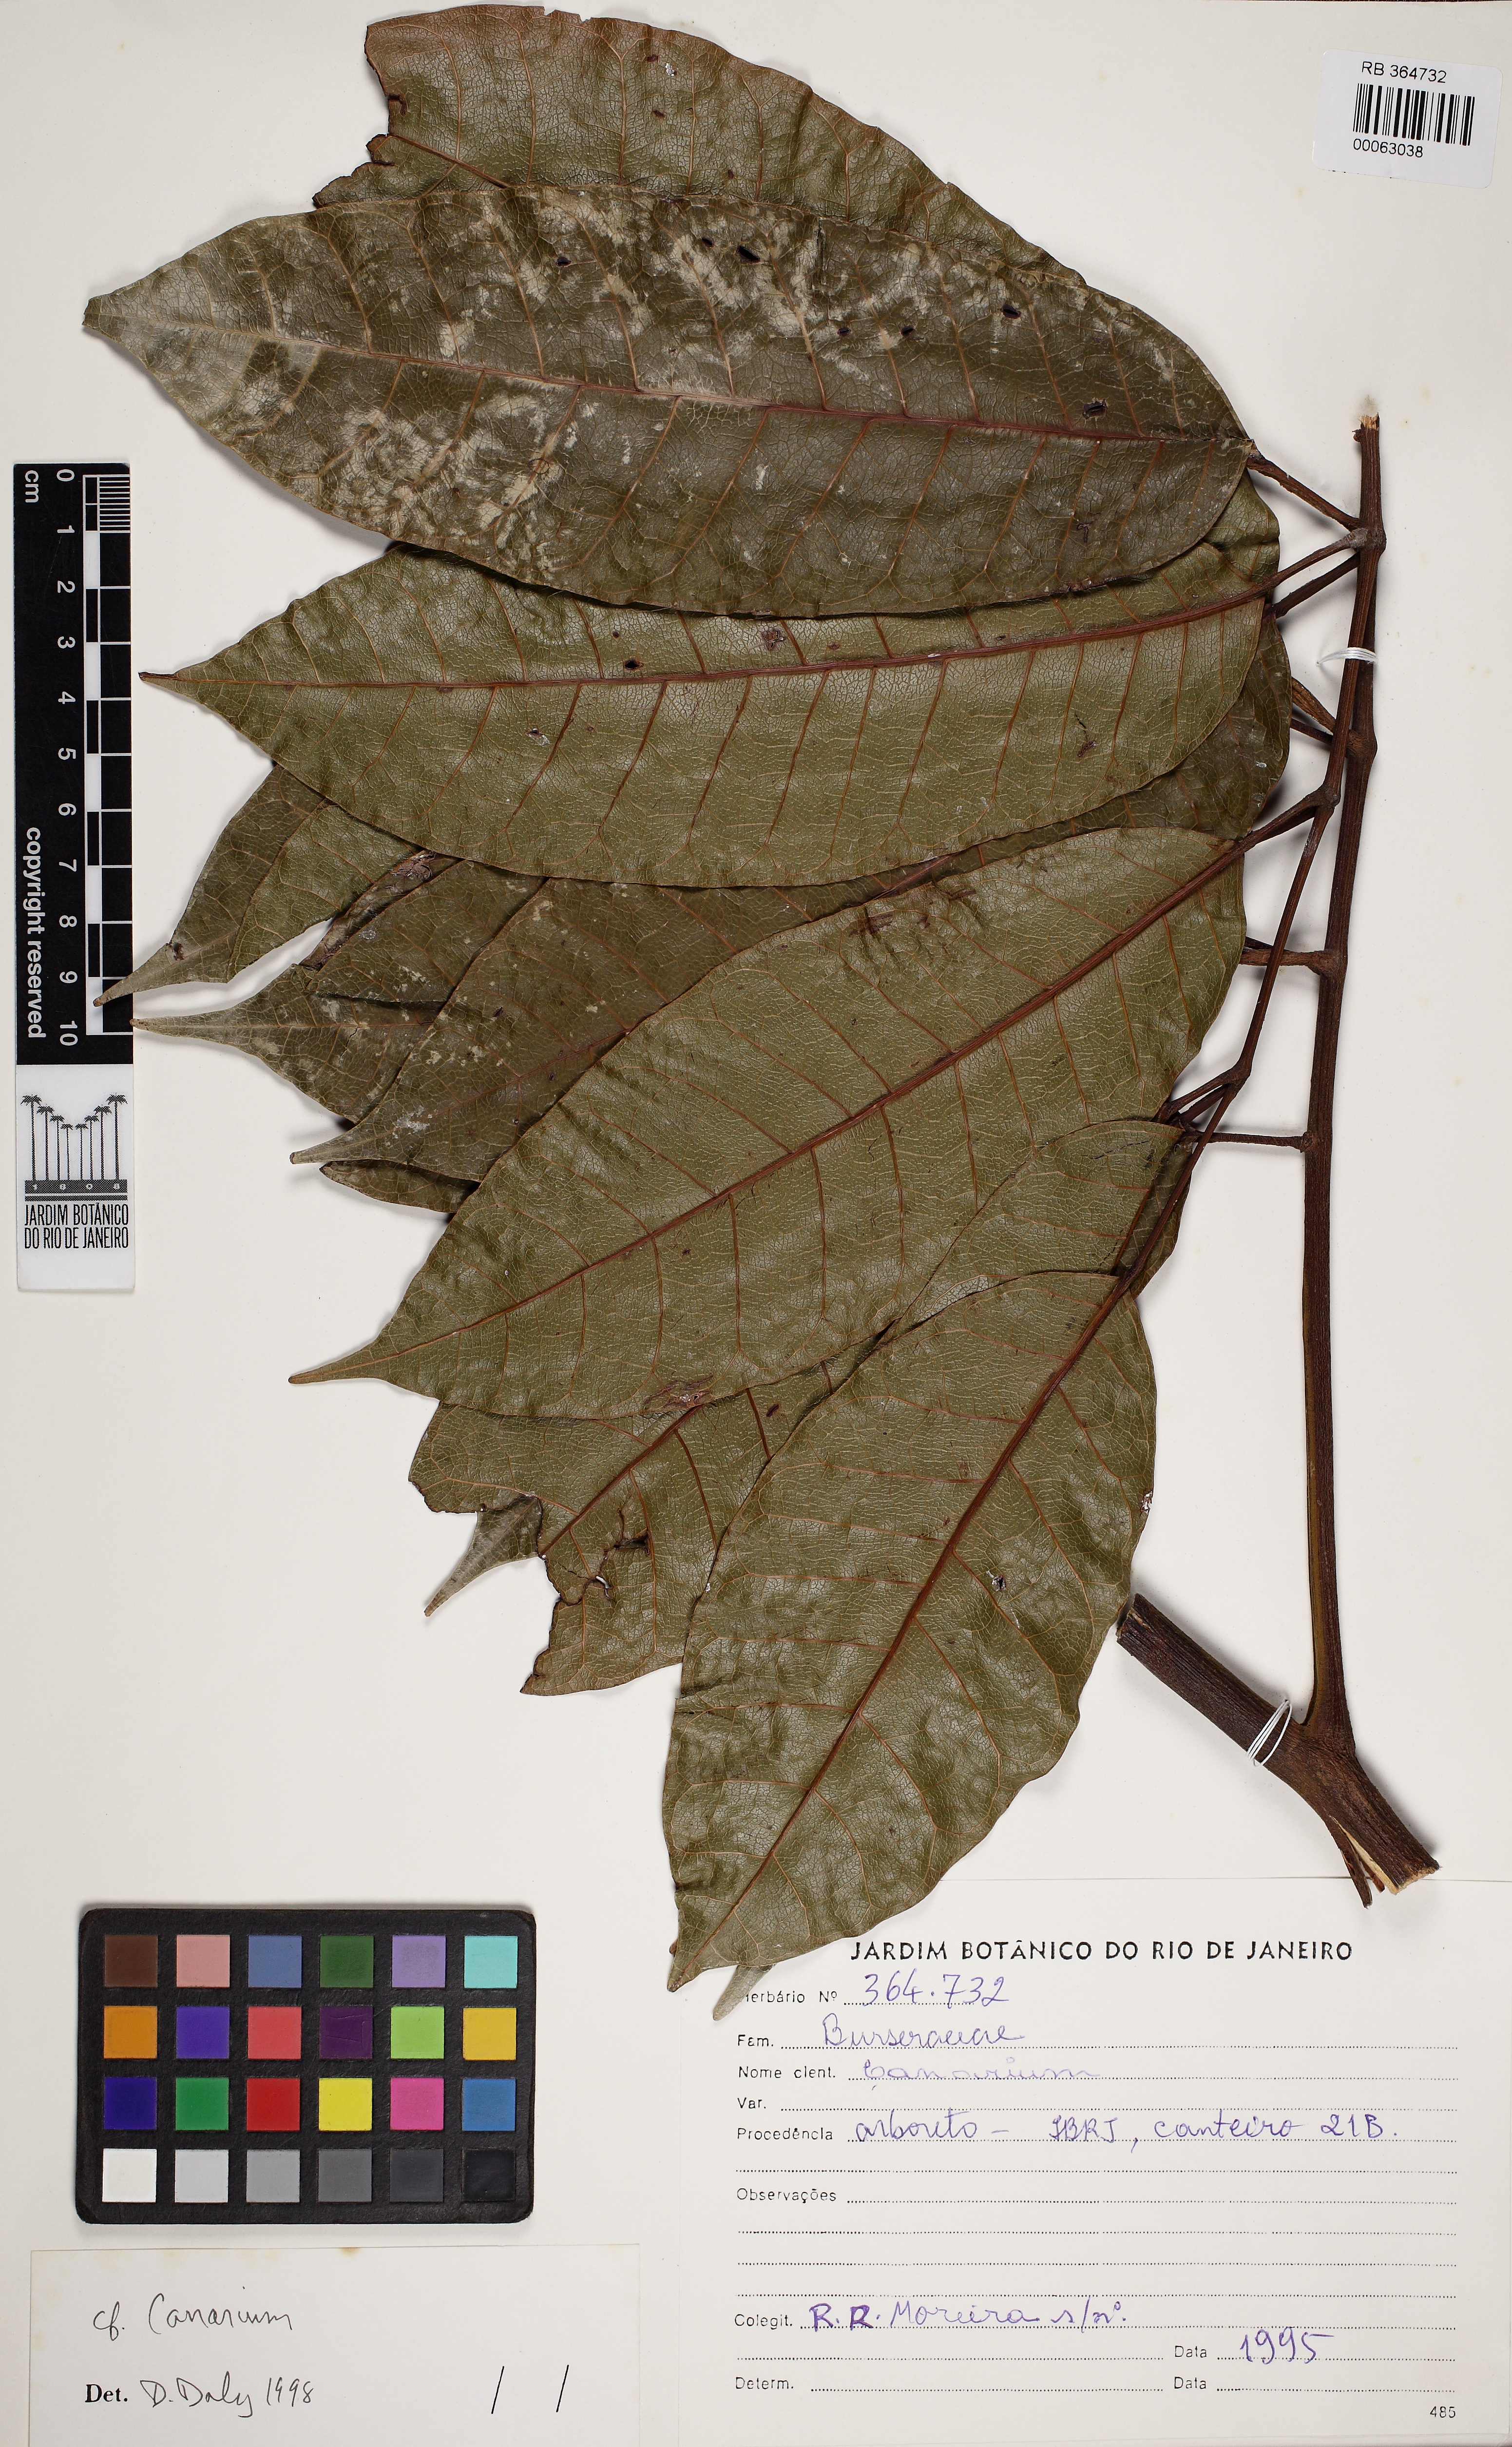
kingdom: Plantae
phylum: Tracheophyta
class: Magnoliopsida
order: Sapindales
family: Burseraceae
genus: Canarium
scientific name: Canarium
